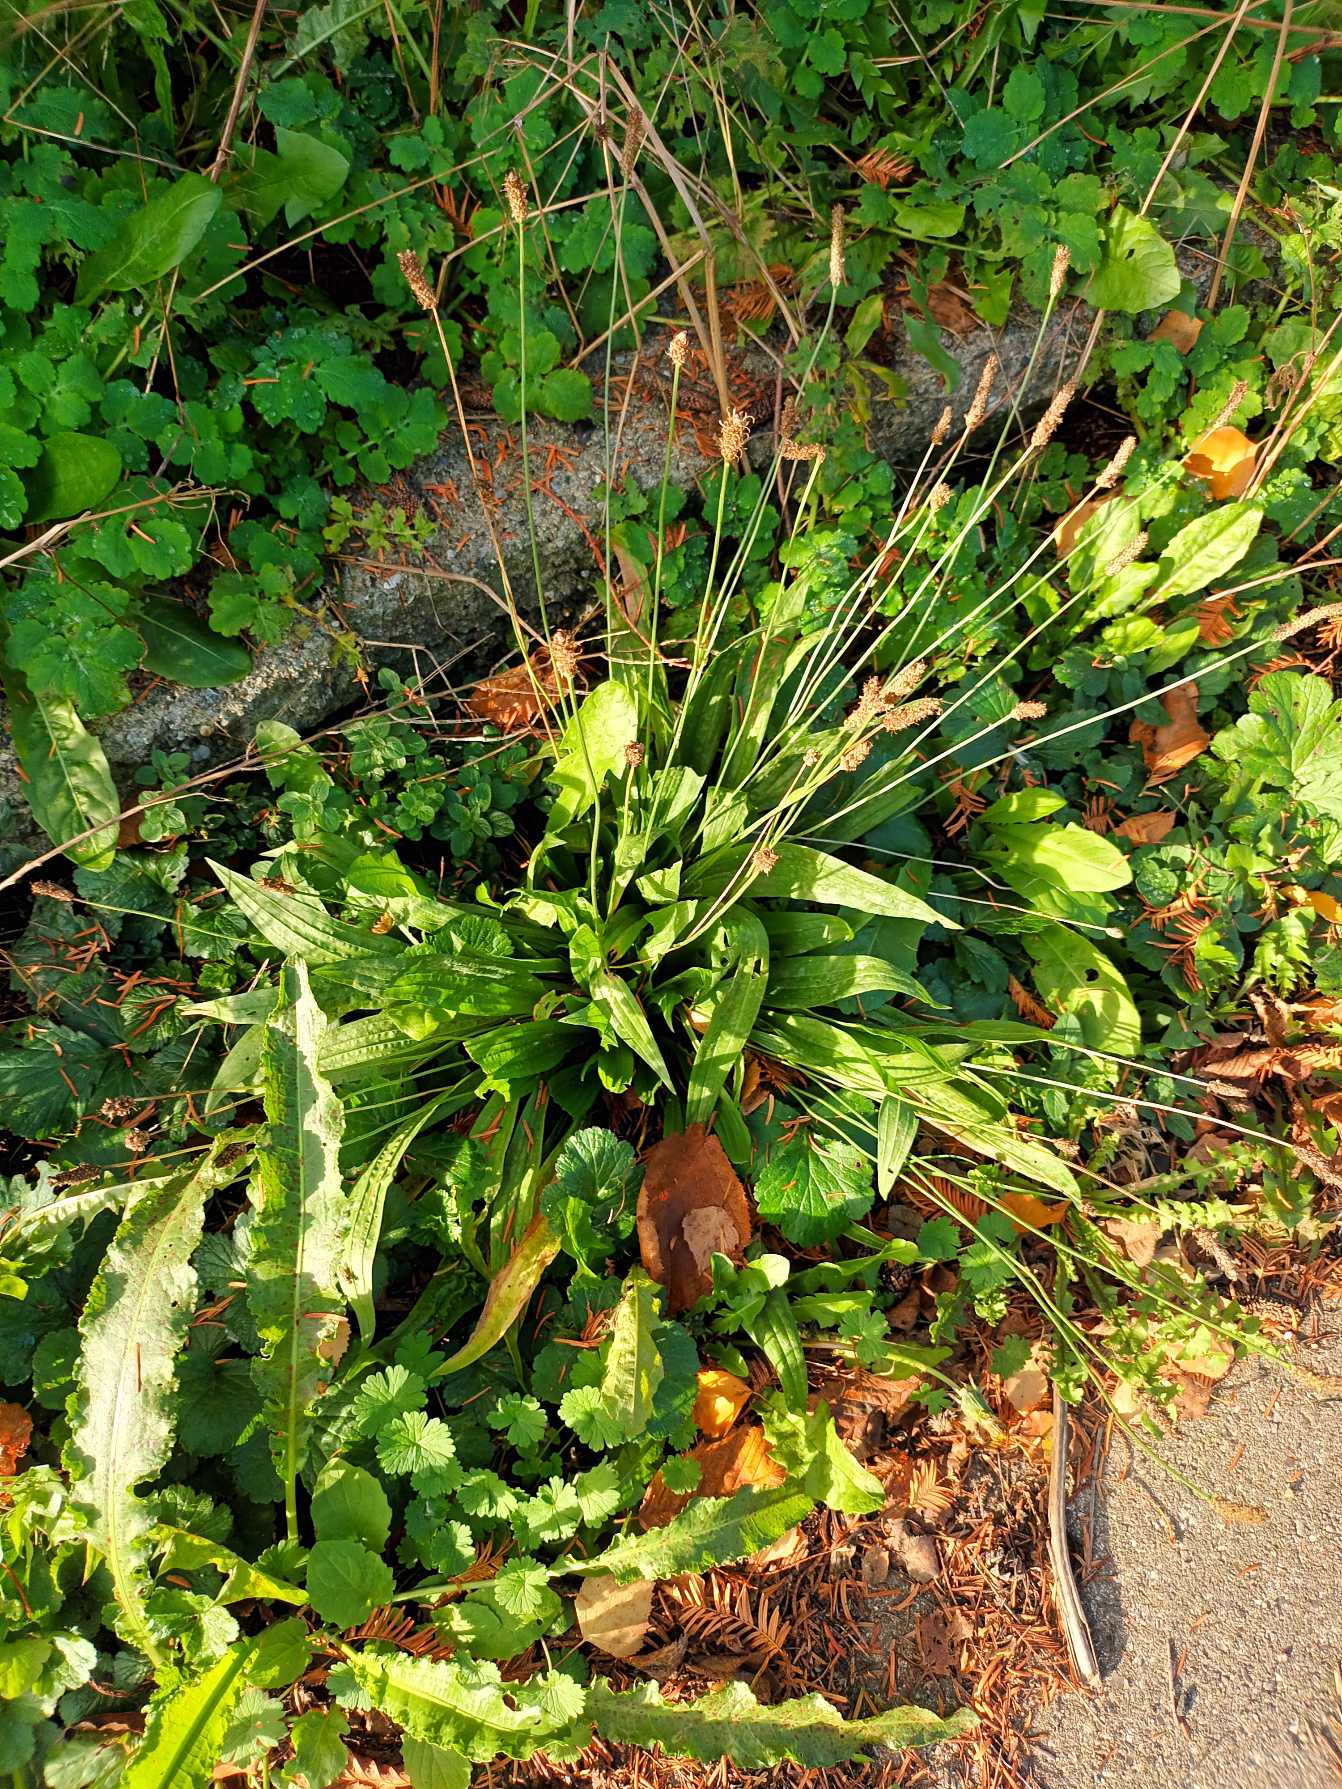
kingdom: Plantae
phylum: Tracheophyta
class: Magnoliopsida
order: Lamiales
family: Plantaginaceae
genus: Plantago
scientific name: Plantago lanceolata
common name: Lancet-vejbred
